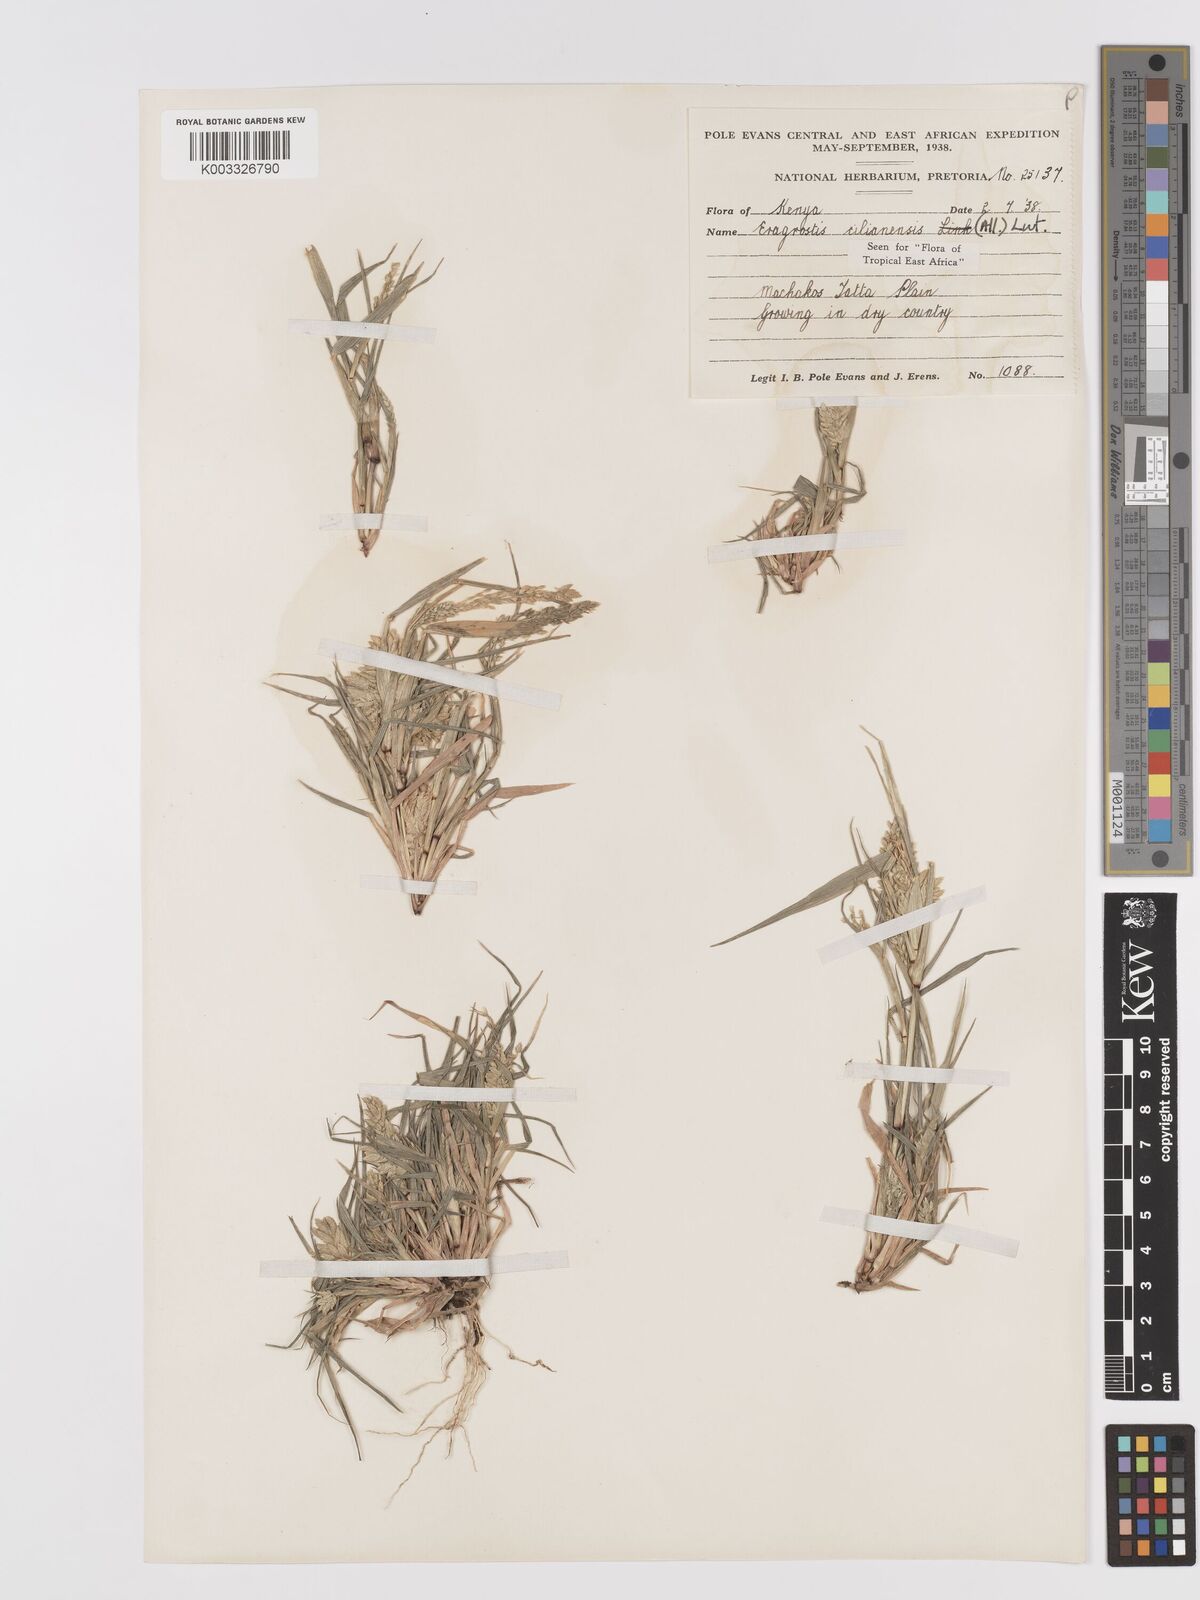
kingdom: Plantae
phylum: Tracheophyta
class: Liliopsida
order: Poales
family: Poaceae
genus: Eragrostis
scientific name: Eragrostis cilianensis
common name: Stinkgrass
